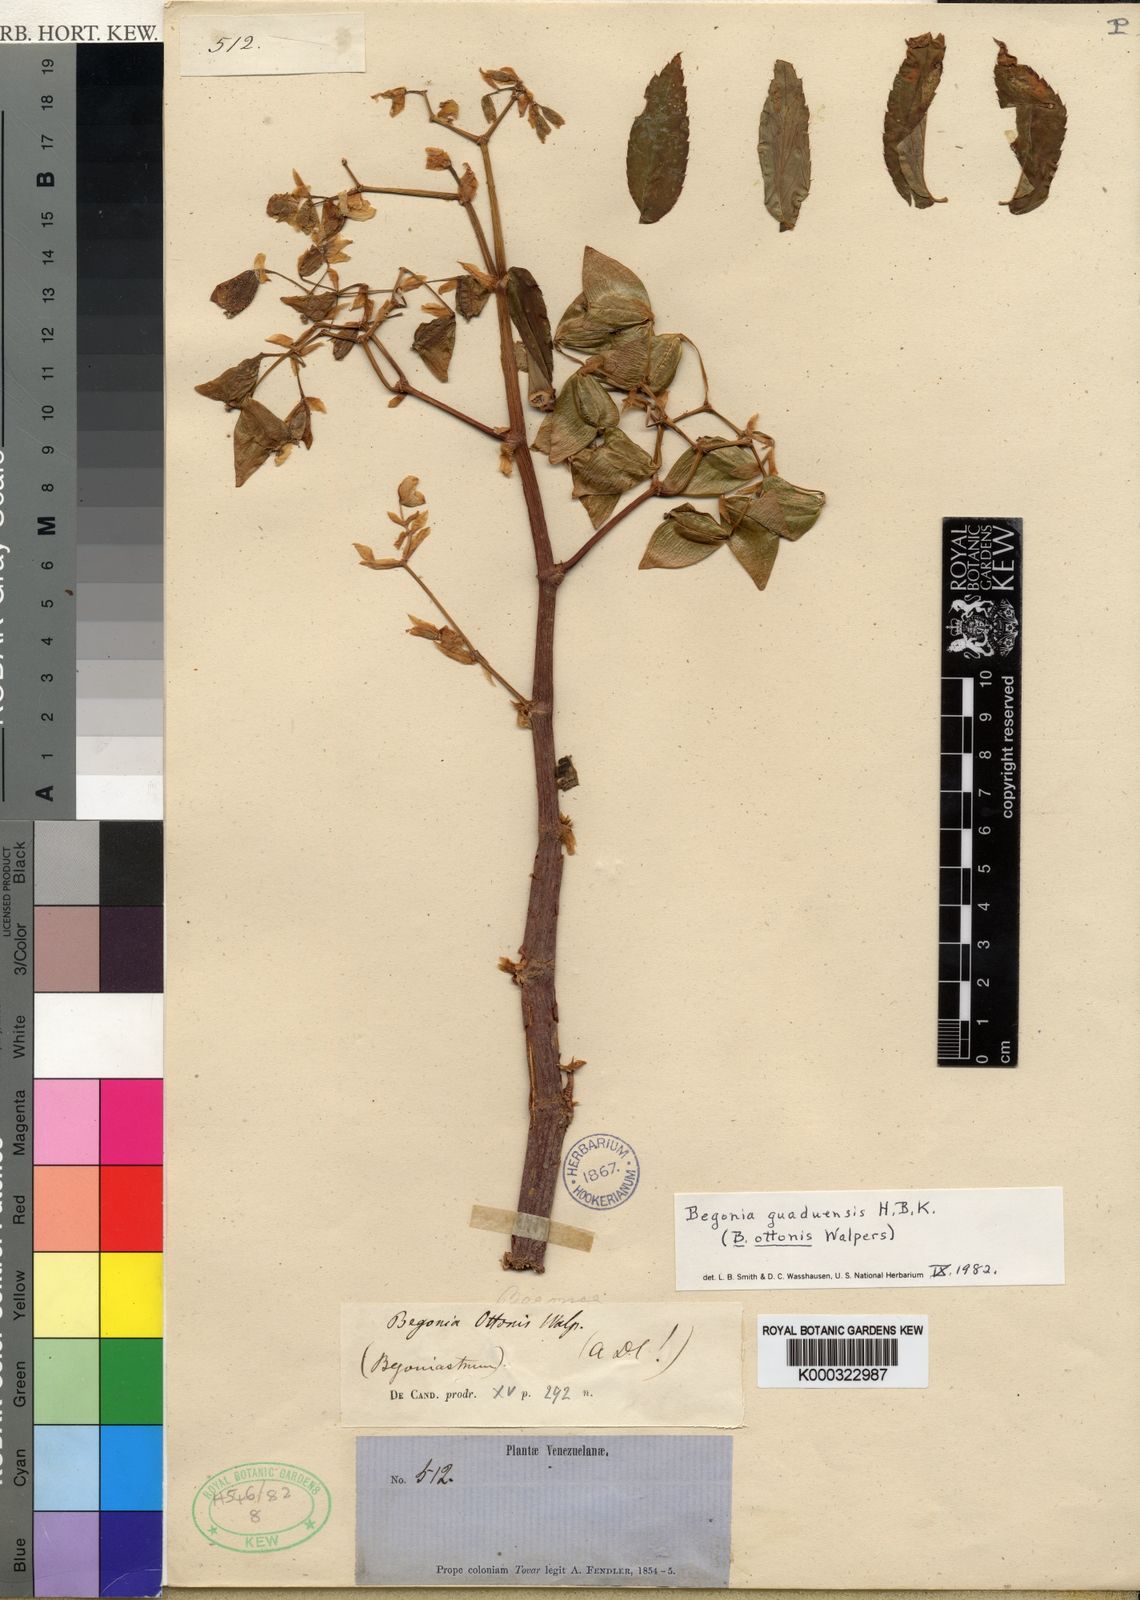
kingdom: Plantae
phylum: Tracheophyta
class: Magnoliopsida
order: Cucurbitales
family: Begoniaceae
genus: Begonia
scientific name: Begonia guaduensis
